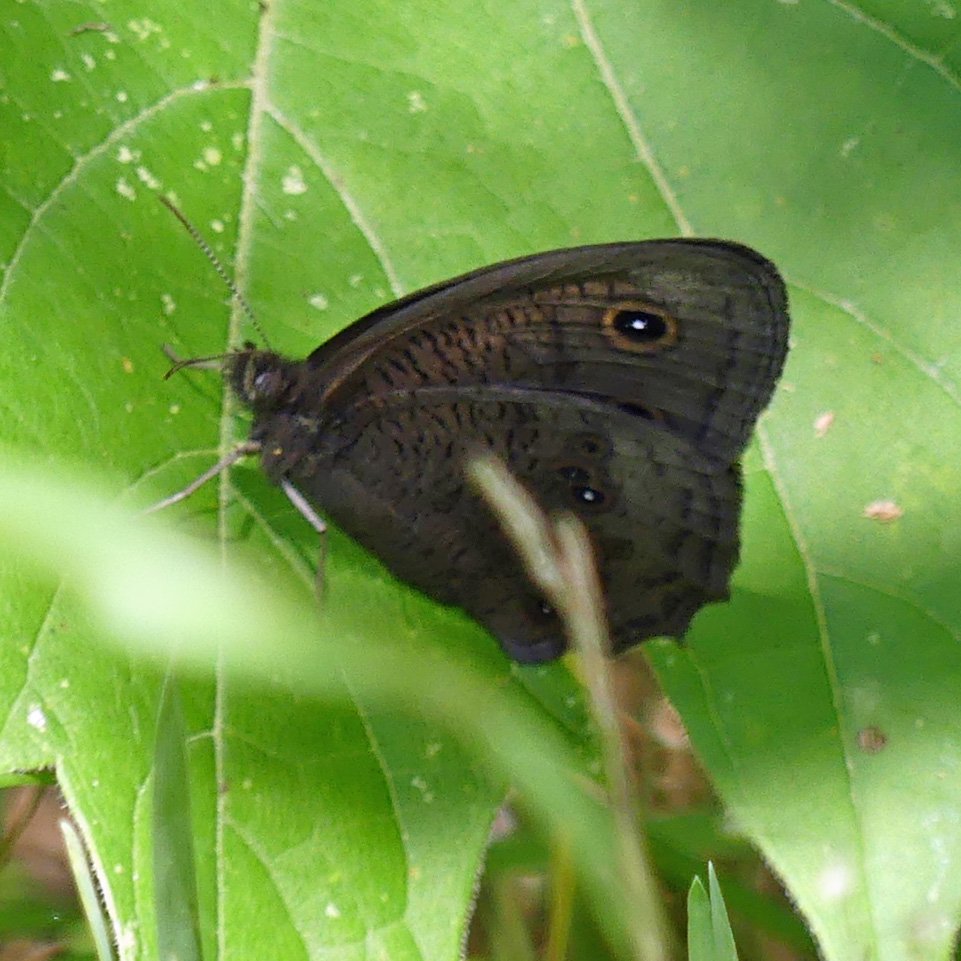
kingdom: Animalia
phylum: Arthropoda
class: Insecta
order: Lepidoptera
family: Nymphalidae
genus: Cercyonis
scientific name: Cercyonis pegala
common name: Common Wood-Nymph
